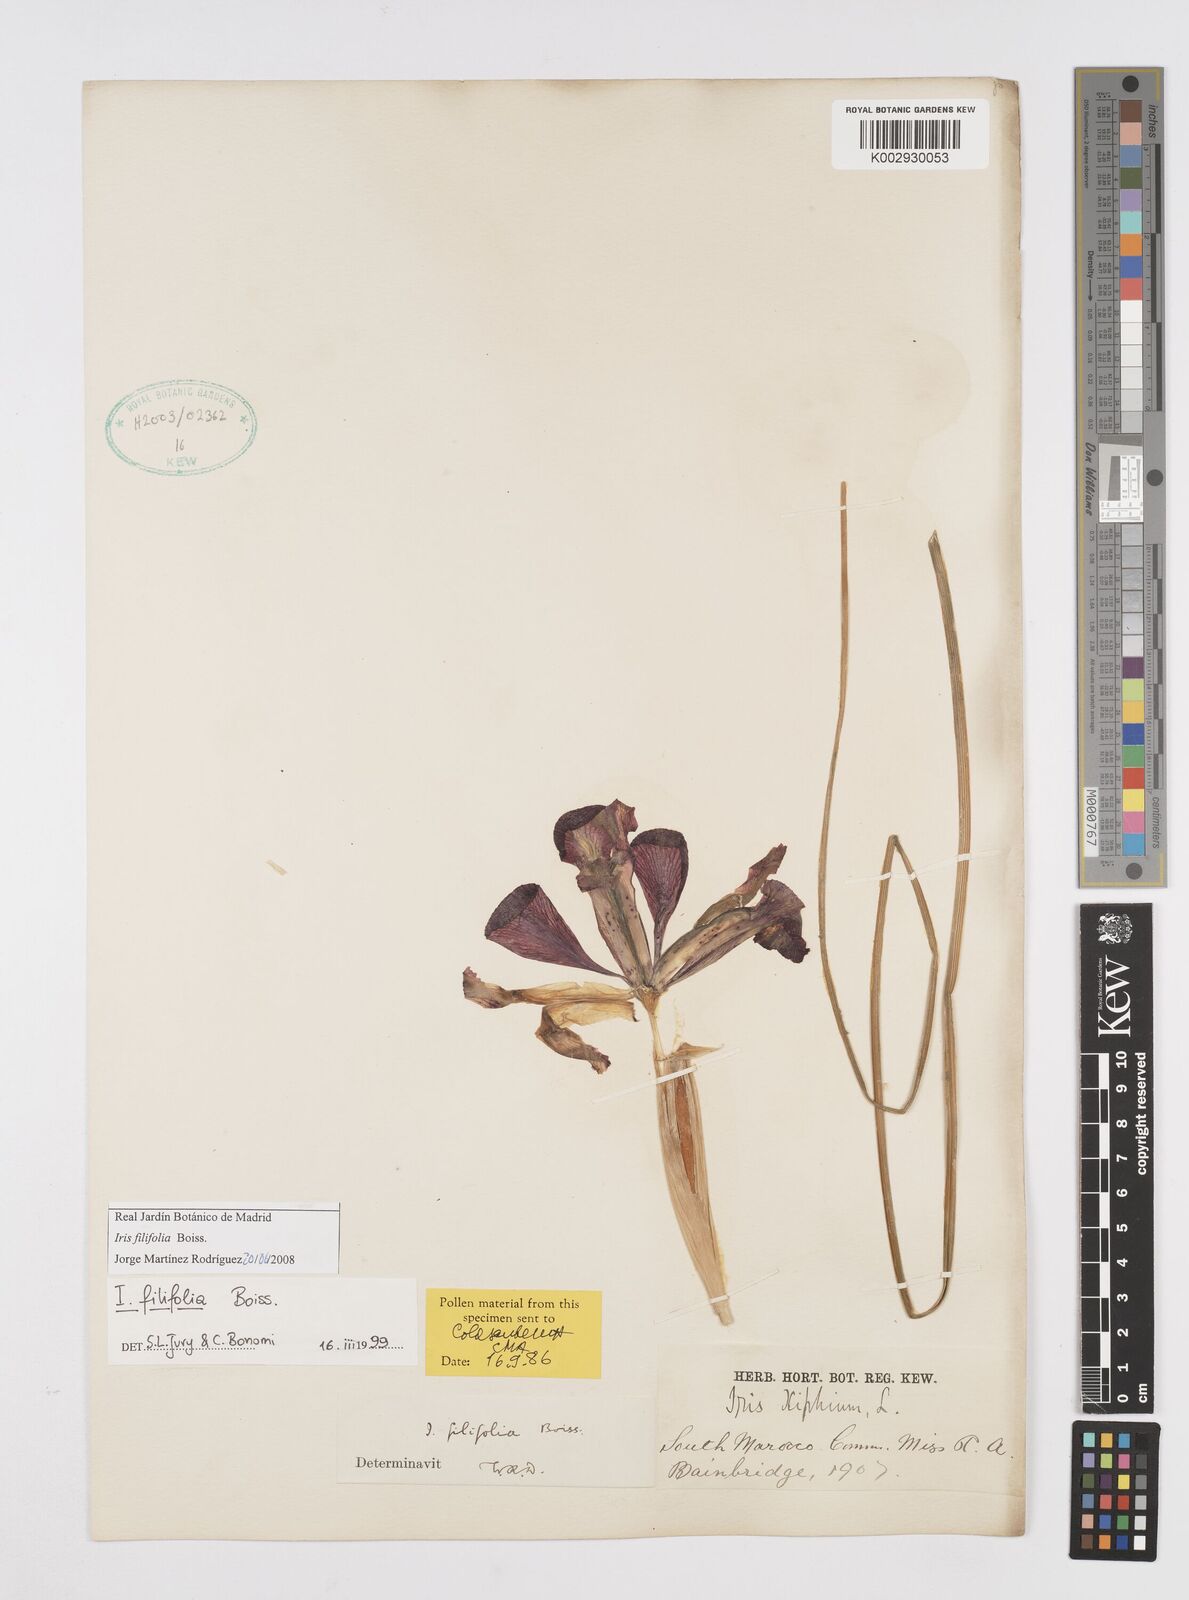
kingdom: Plantae
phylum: Tracheophyta
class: Liliopsida
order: Asparagales
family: Iridaceae
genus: Iris
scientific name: Iris filifolia
